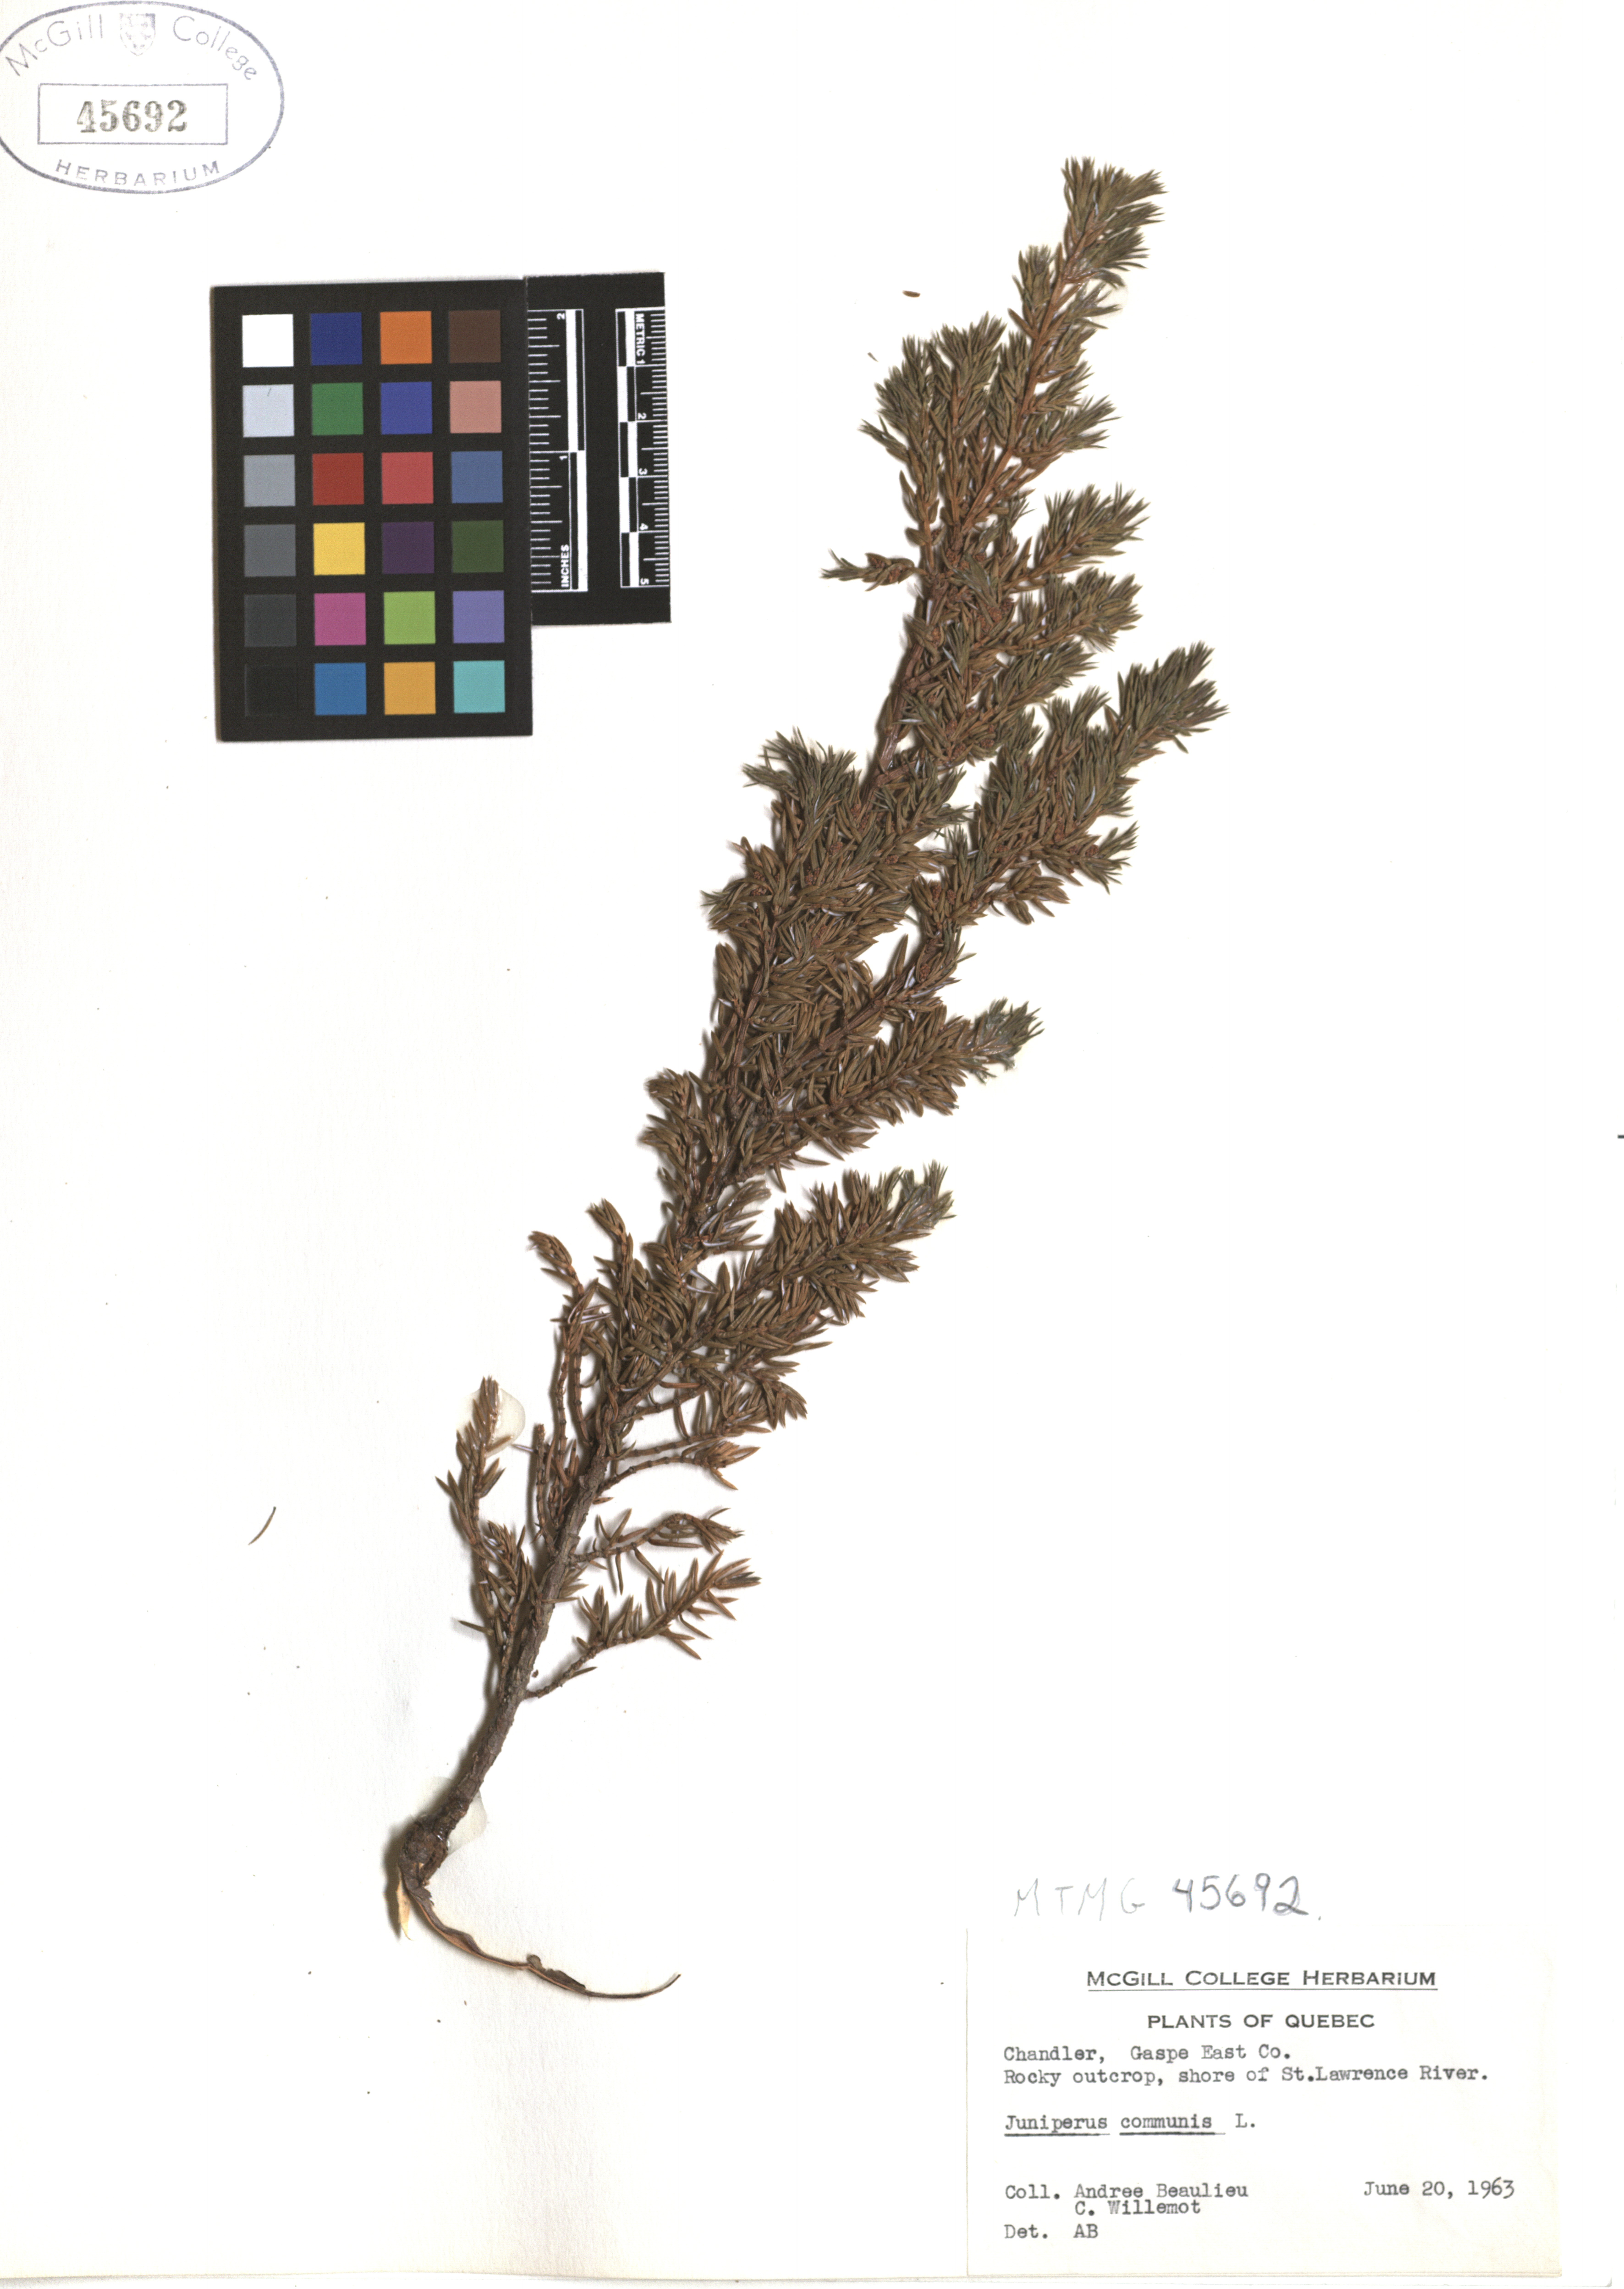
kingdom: Plantae
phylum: Tracheophyta
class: Pinopsida
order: Pinales
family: Cupressaceae
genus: Juniperus
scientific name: Juniperus communis
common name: Common juniper
